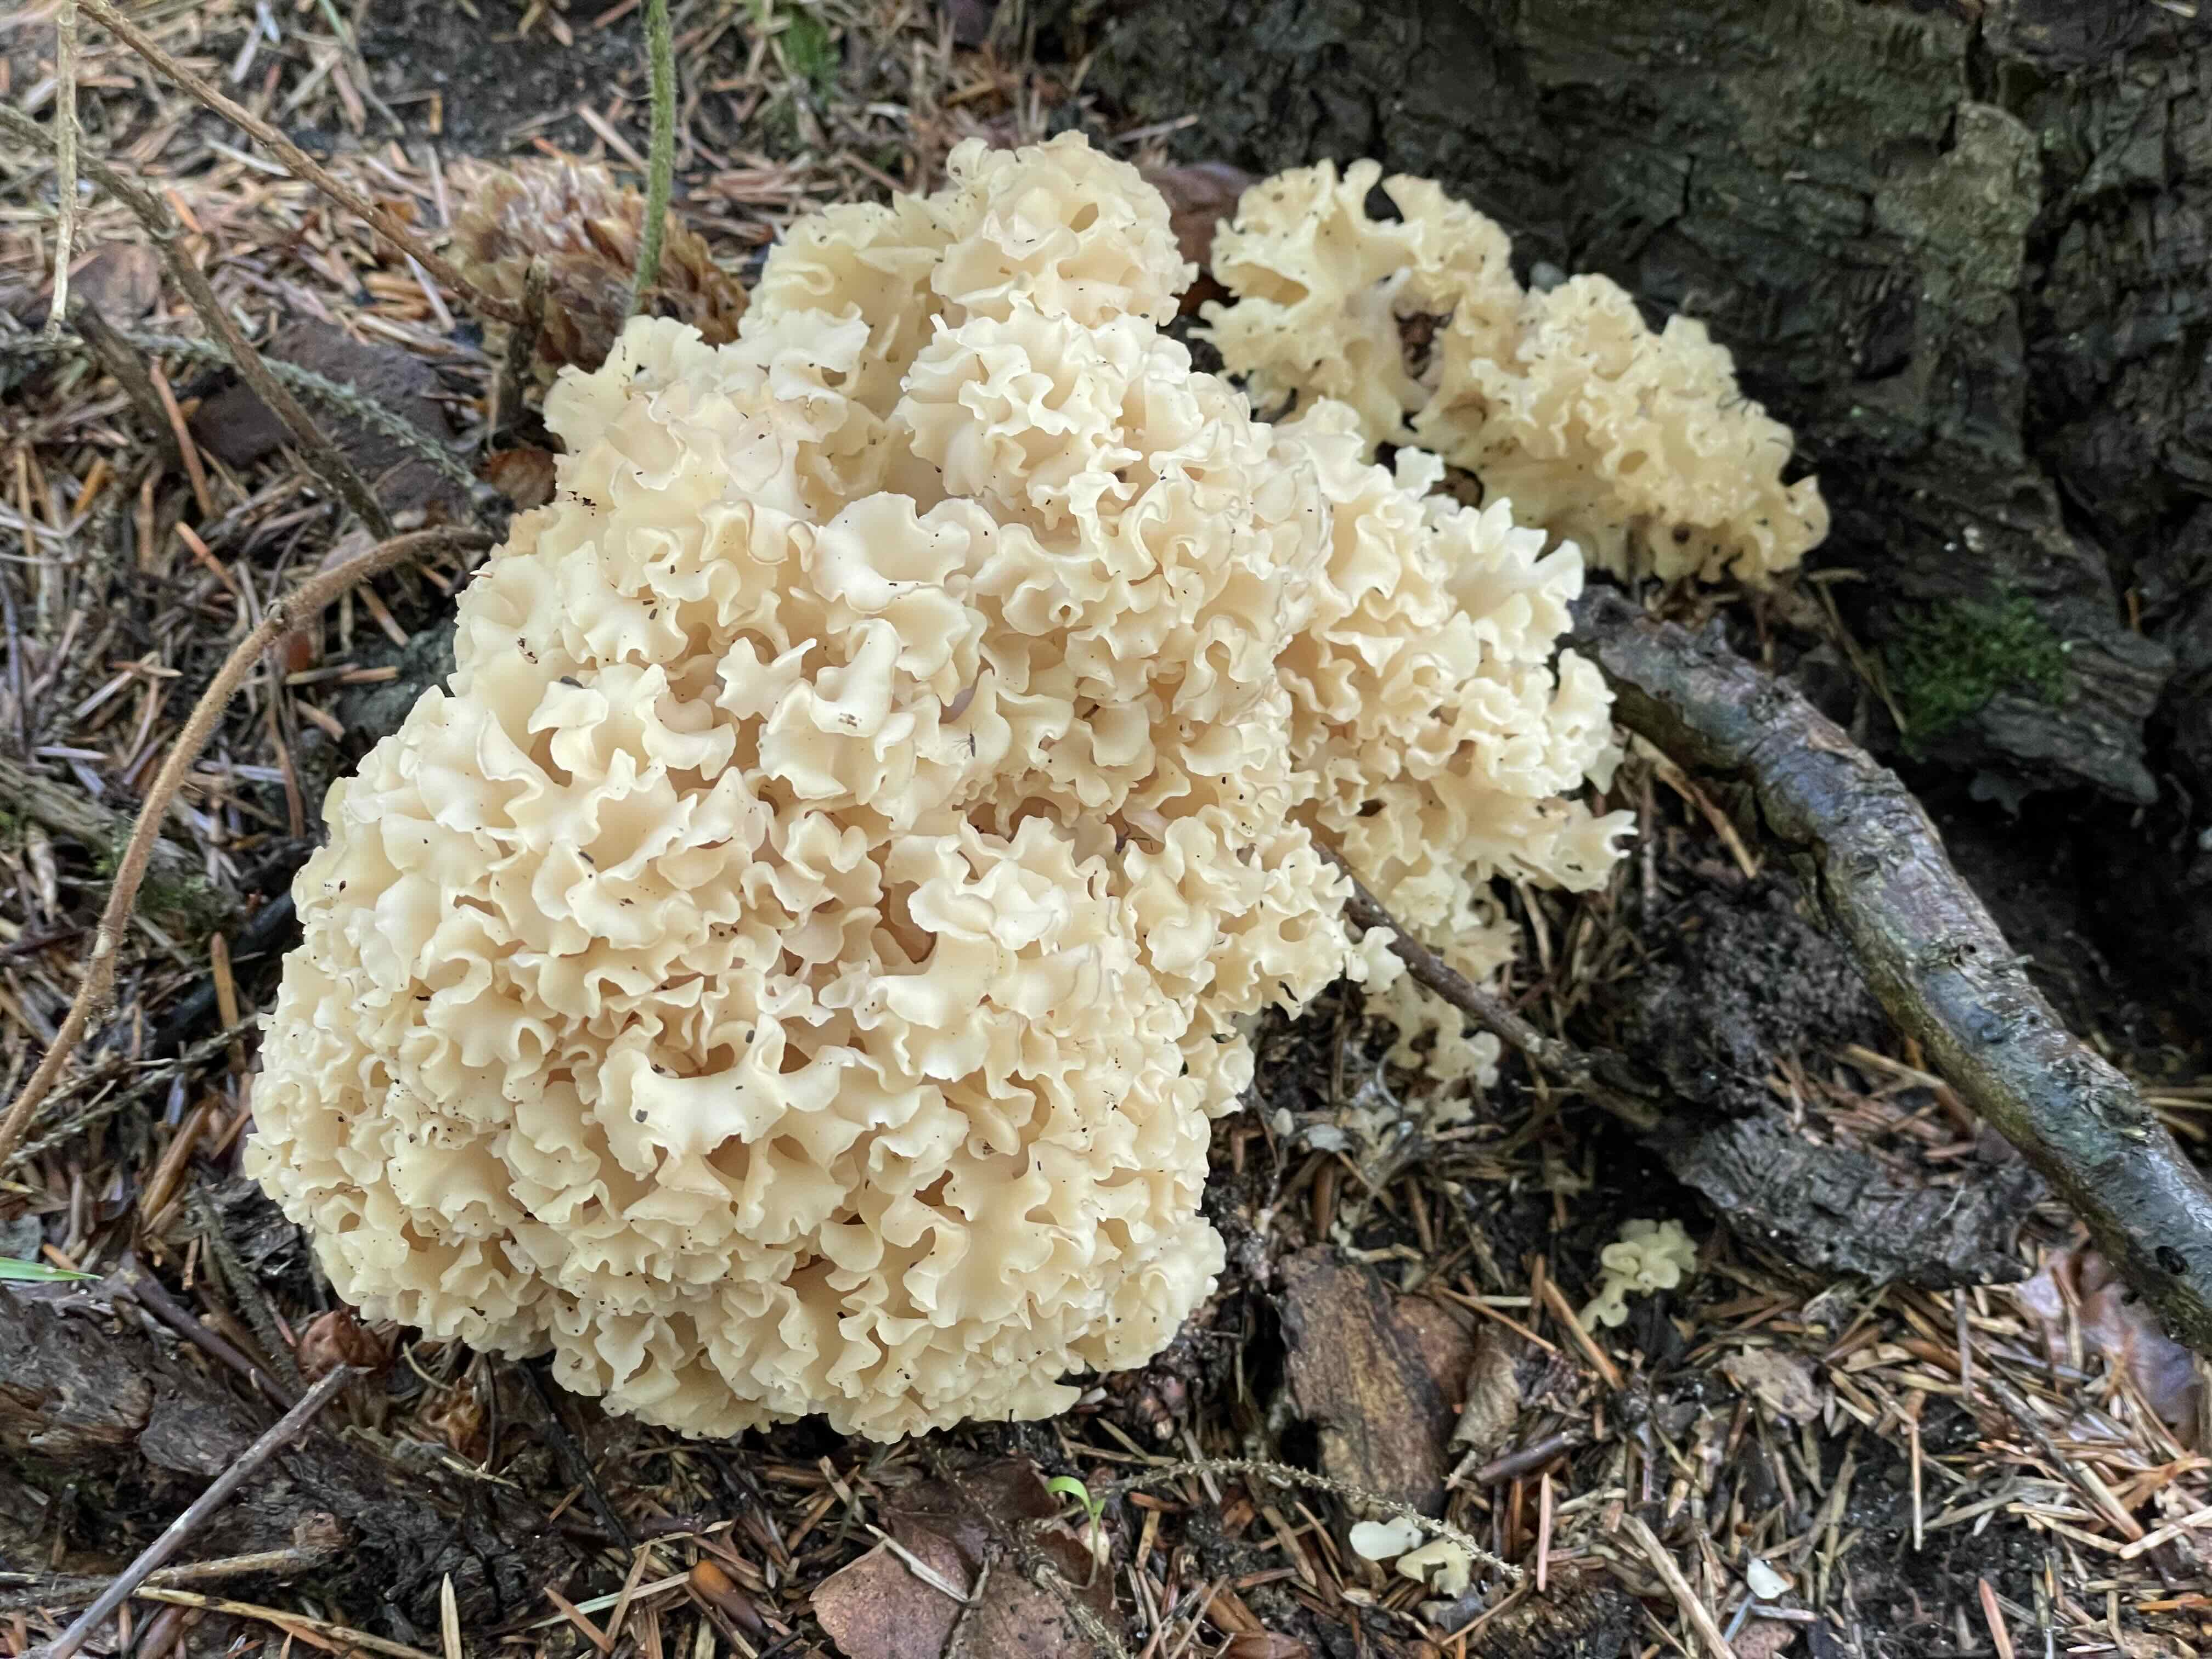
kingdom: Fungi
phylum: Basidiomycota
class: Agaricomycetes
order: Polyporales
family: Sparassidaceae
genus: Sparassis
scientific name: Sparassis crispa
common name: kruset blomkålssvamp
